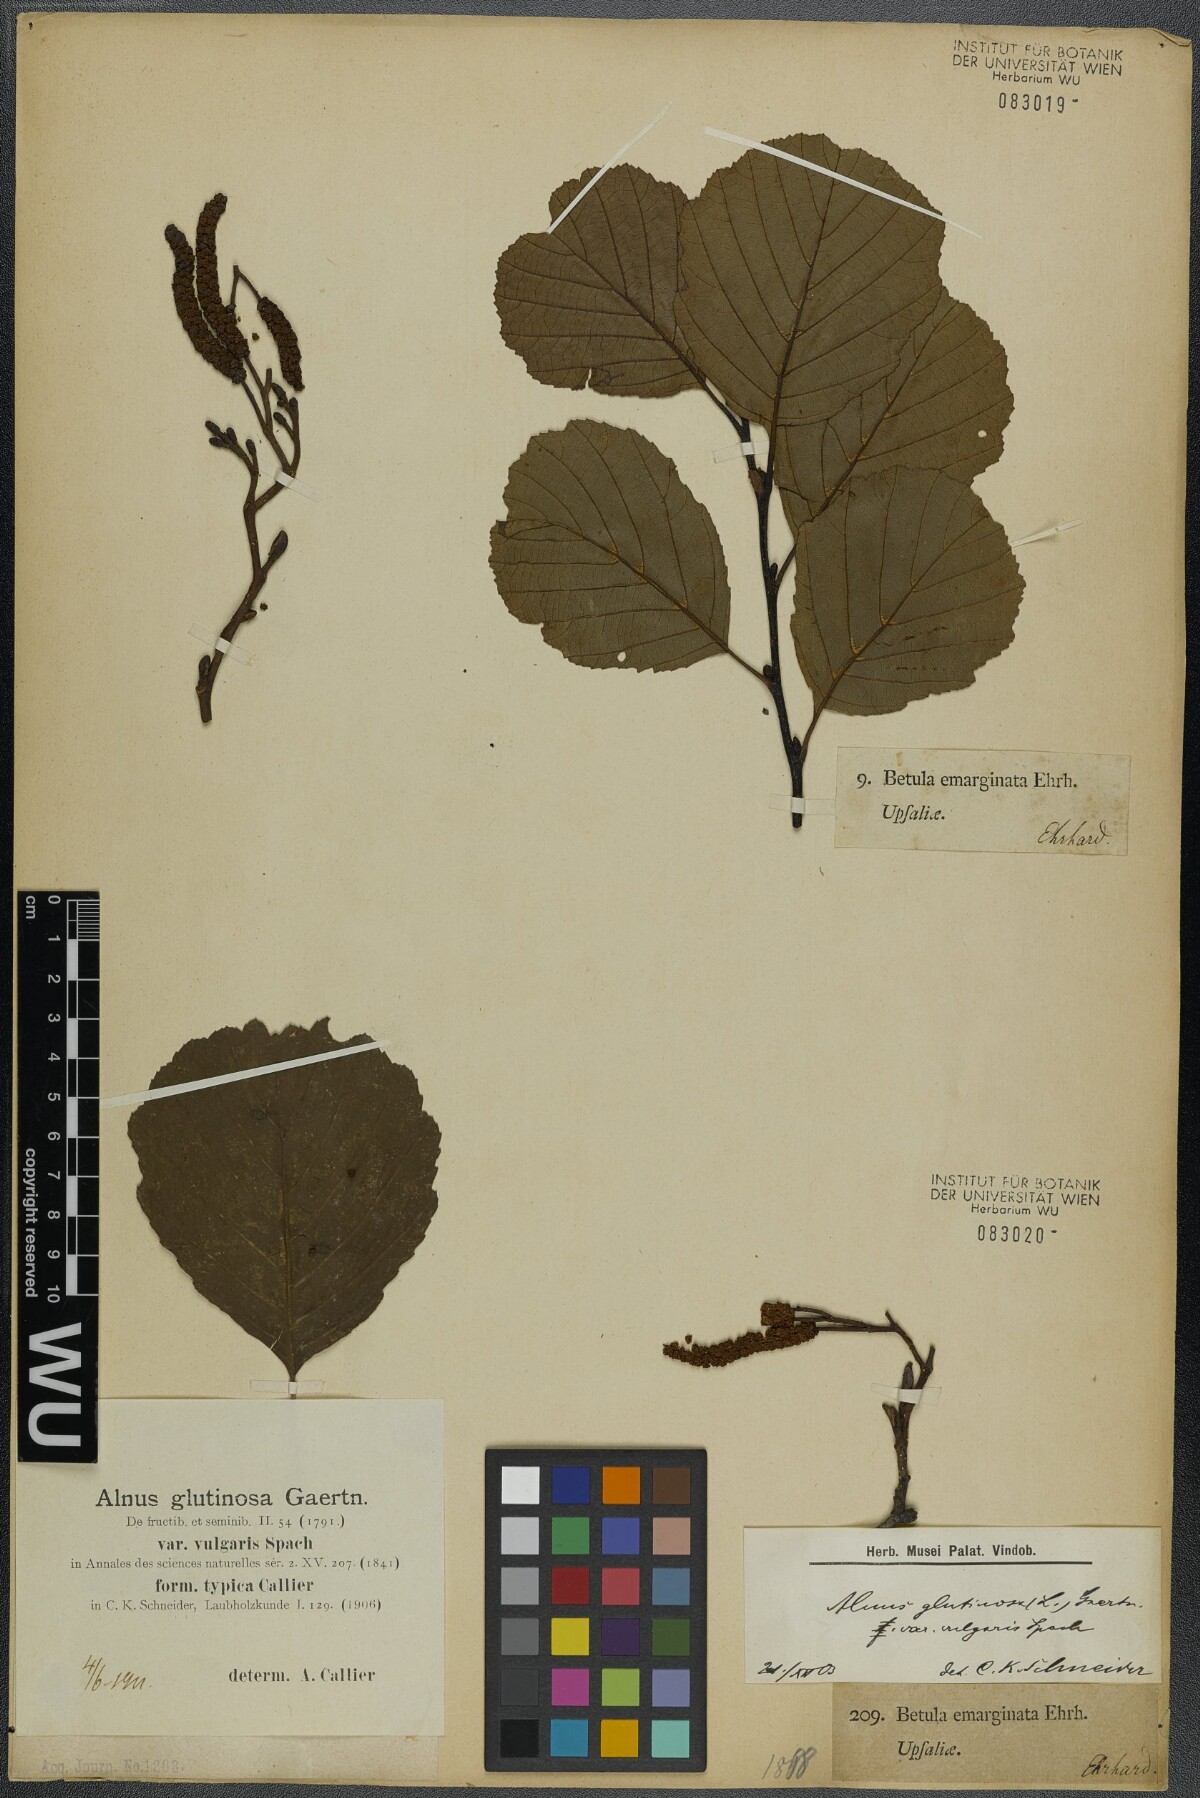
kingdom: Plantae
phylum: Tracheophyta
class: Magnoliopsida
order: Fagales
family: Betulaceae
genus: Alnus
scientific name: Alnus glutinosa
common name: Black alder
